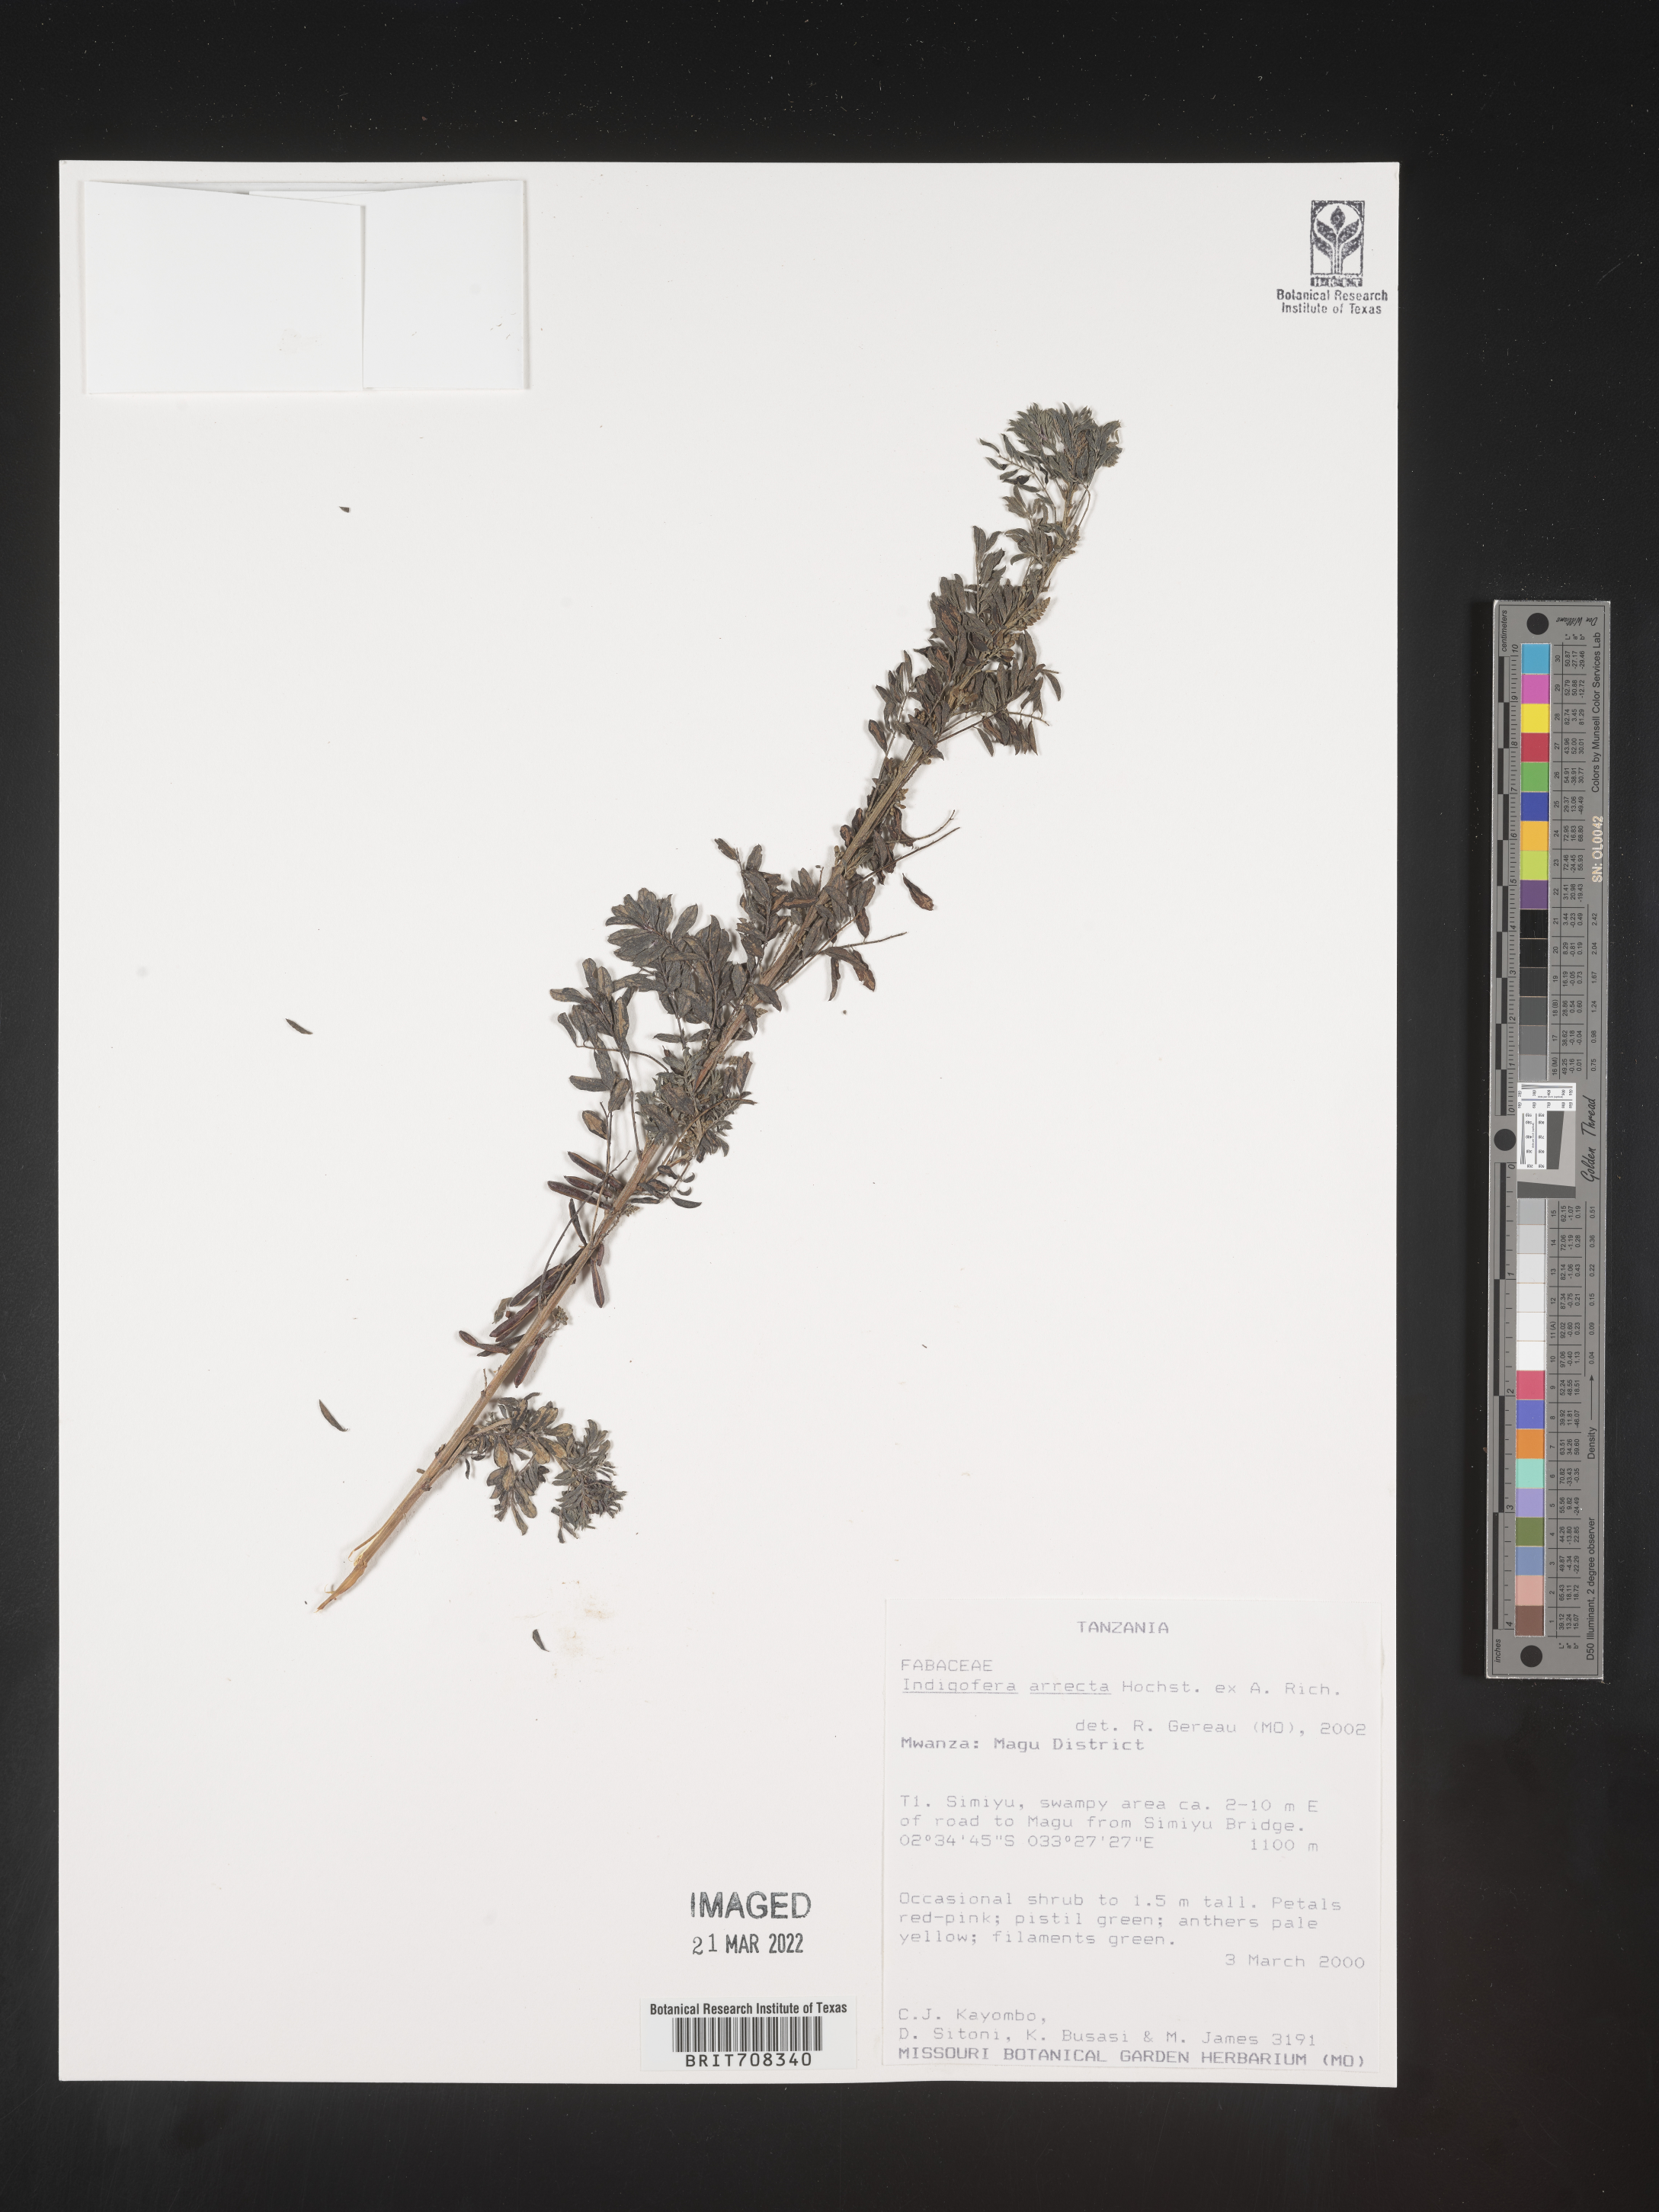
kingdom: Plantae
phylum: Tracheophyta
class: Magnoliopsida
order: Fabales
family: Fabaceae
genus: Indigofera
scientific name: Indigofera
